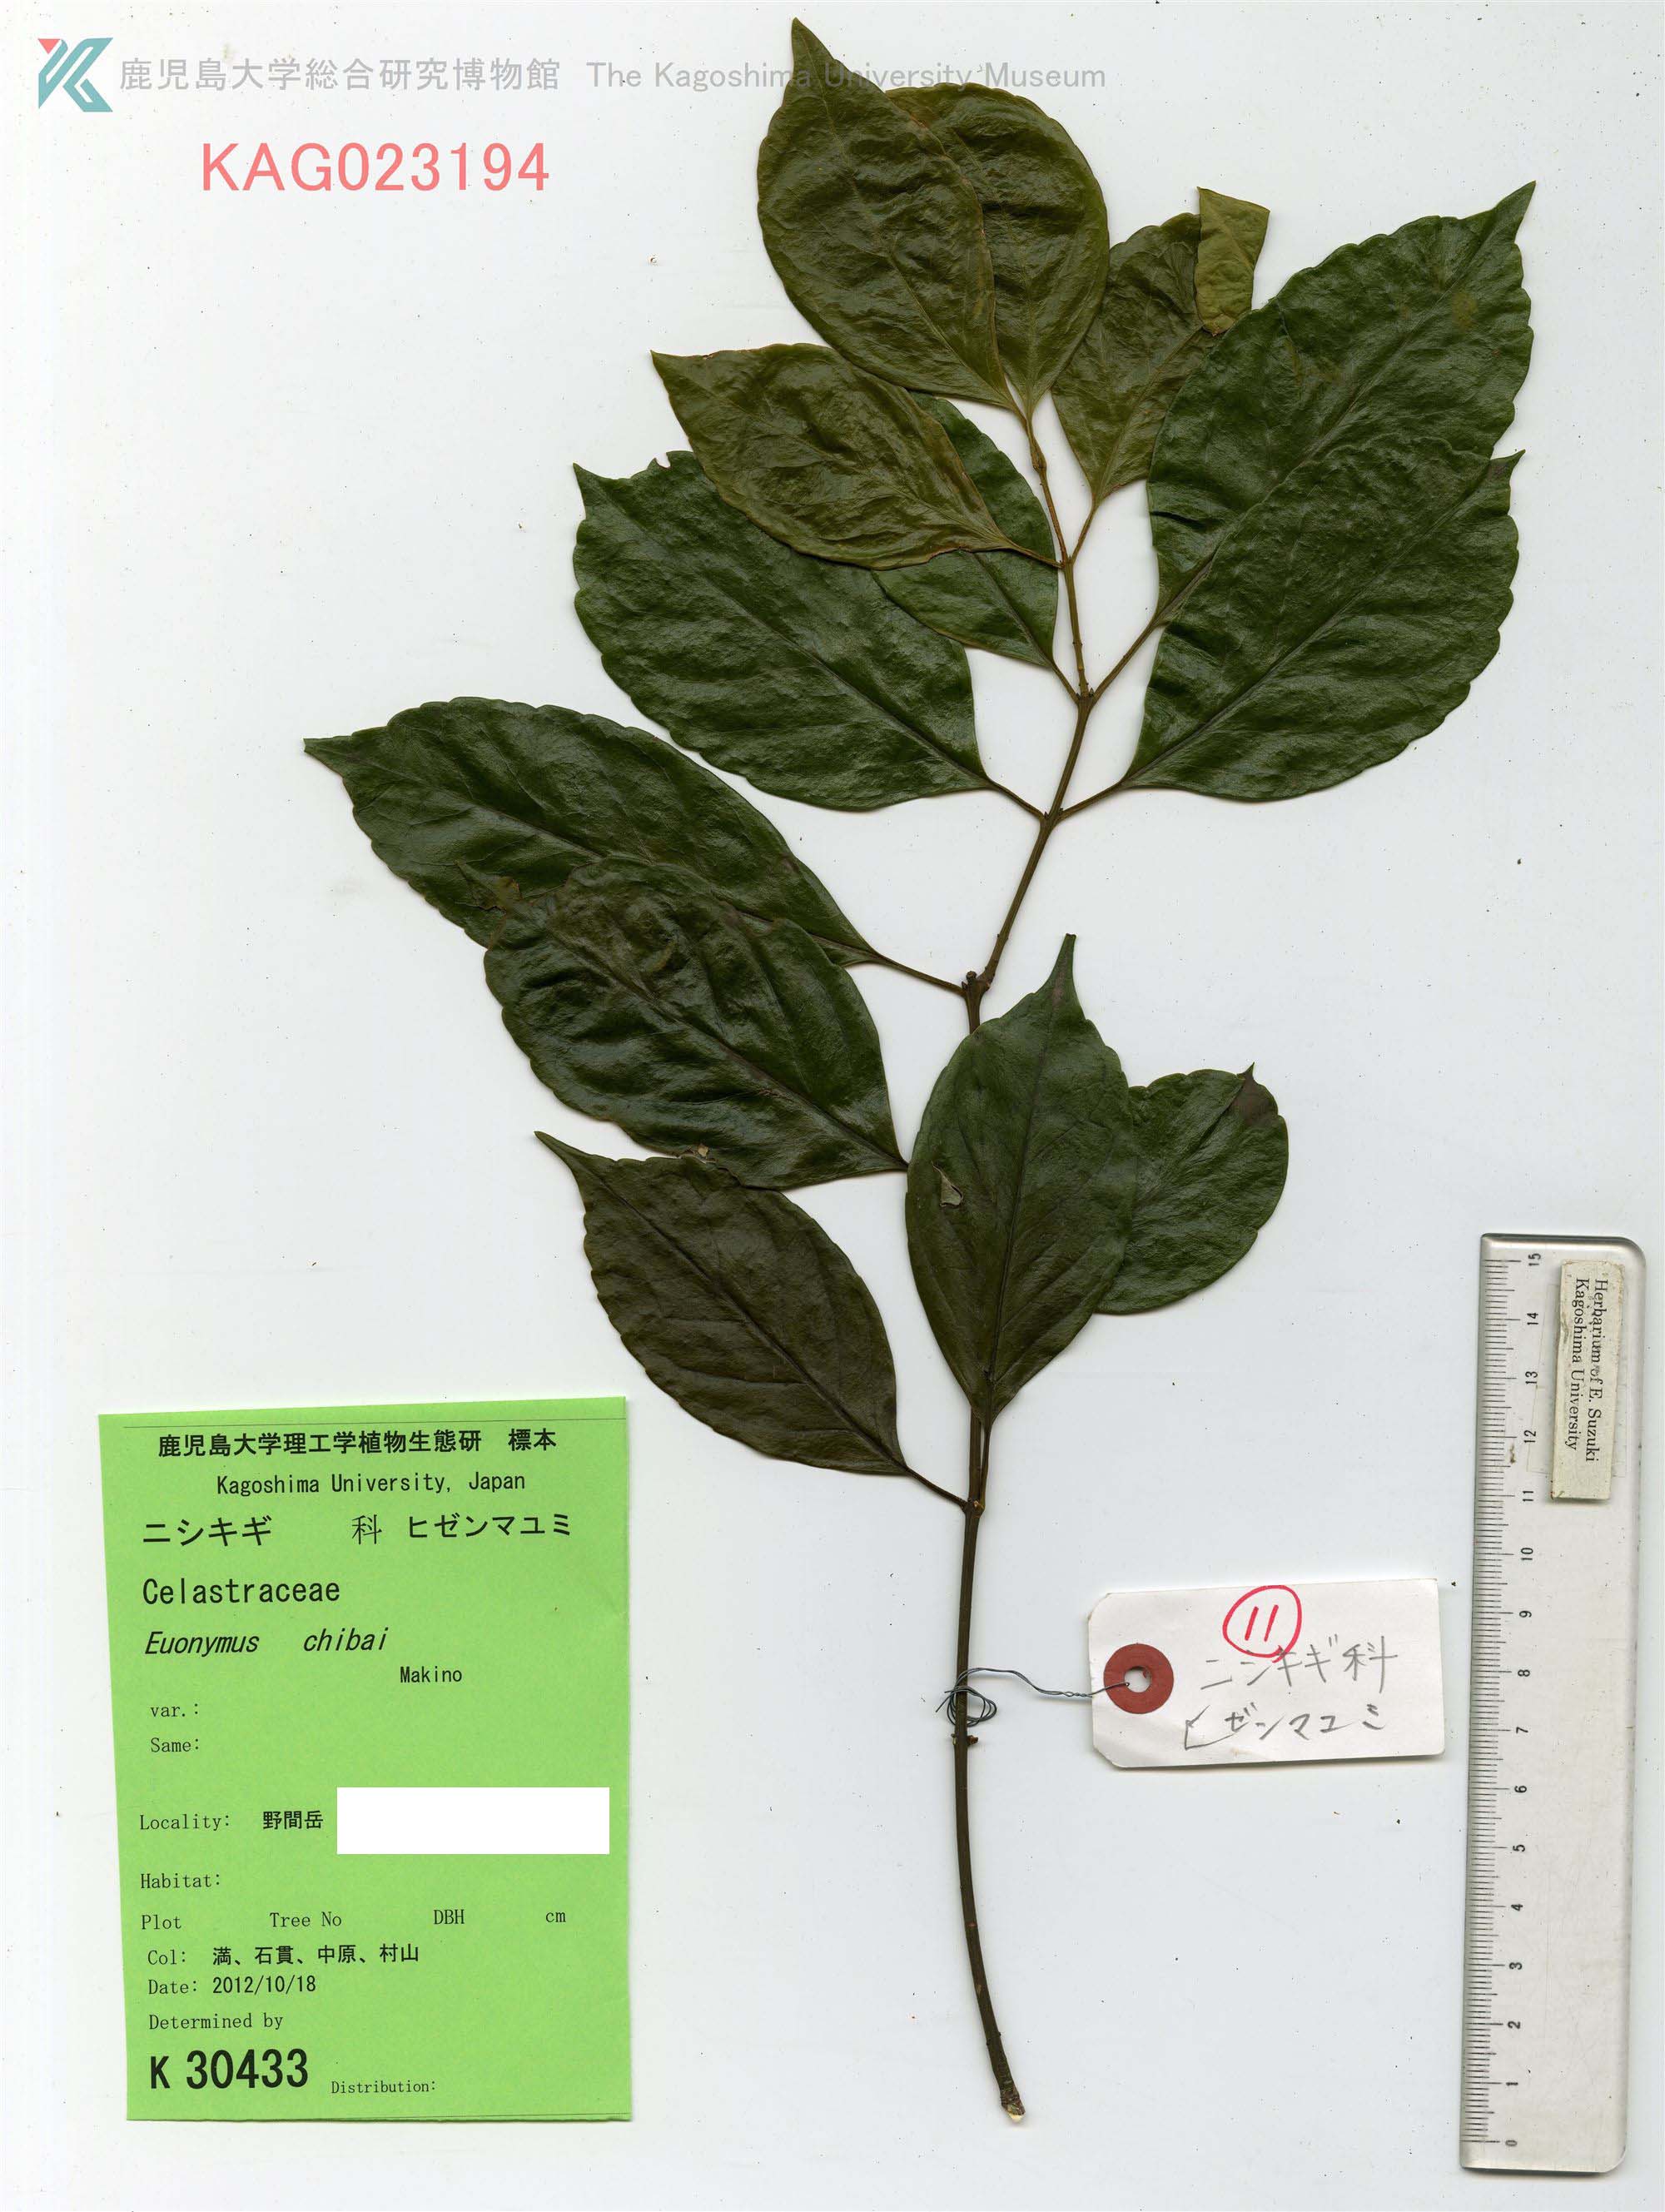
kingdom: Plantae
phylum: Tracheophyta
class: Magnoliopsida
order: Celastrales
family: Celastraceae
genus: Euonymus
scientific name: Euonymus chibae
